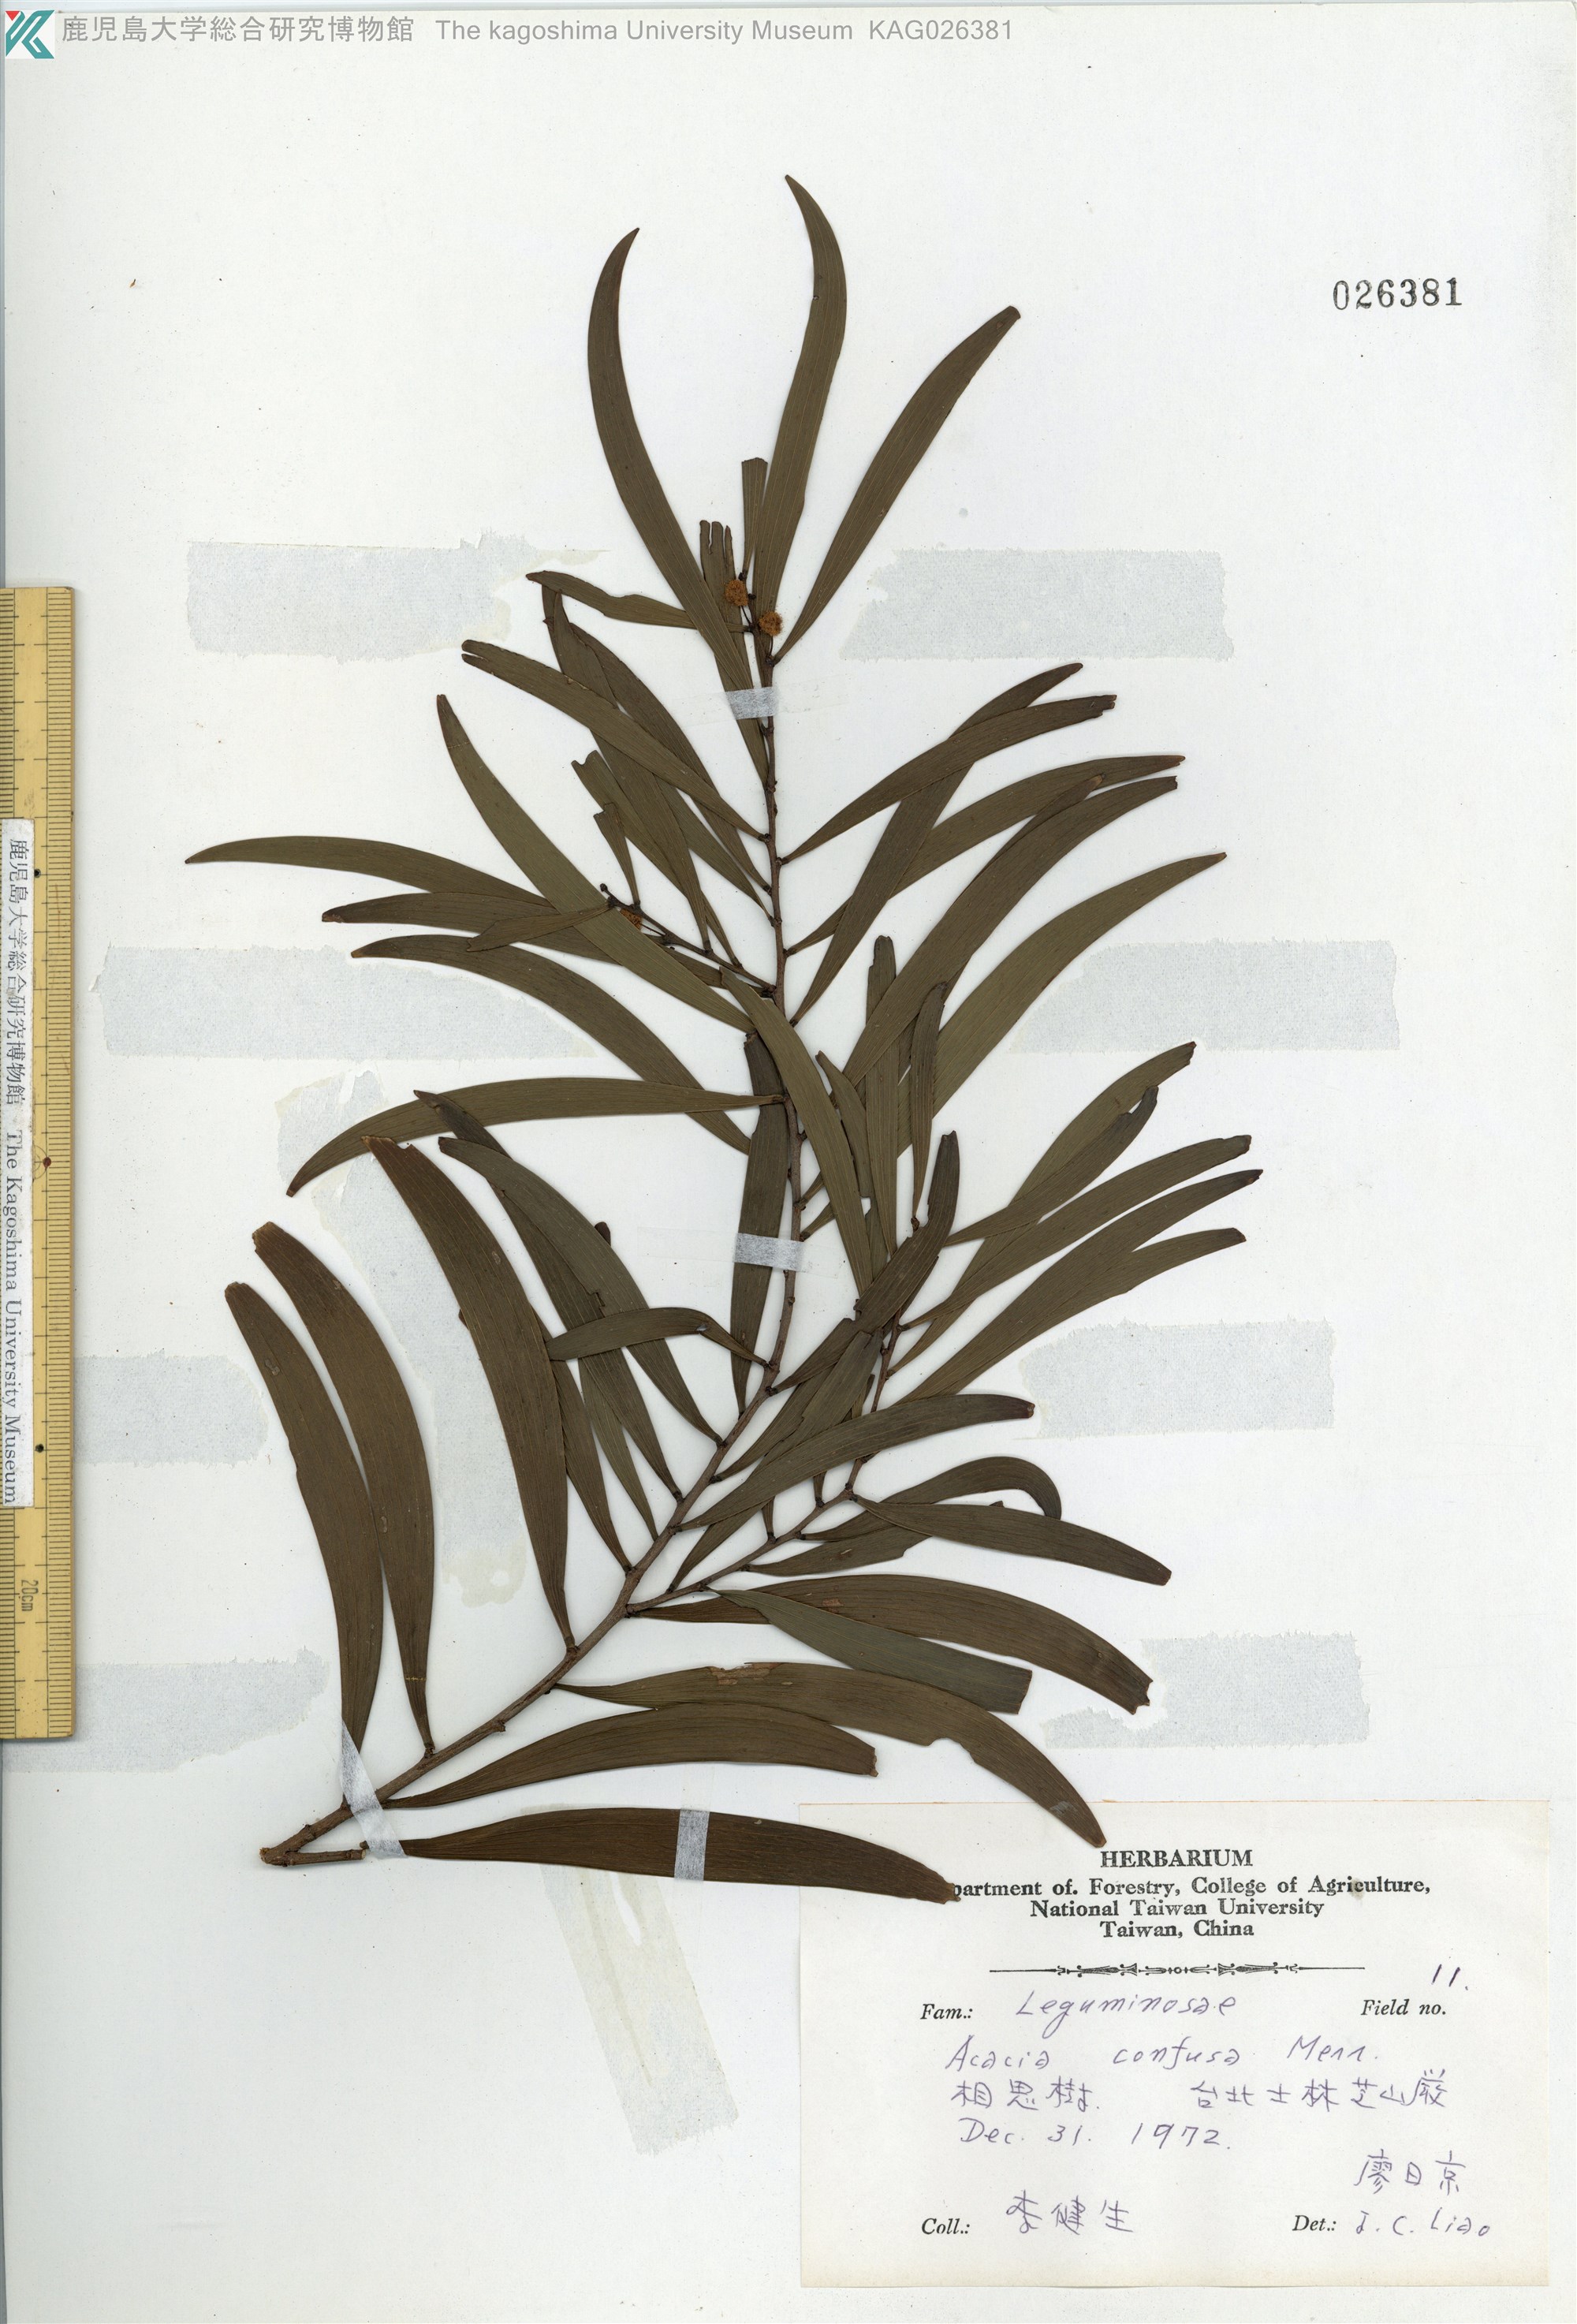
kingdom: Plantae
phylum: Tracheophyta
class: Magnoliopsida
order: Fabales
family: Fabaceae
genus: Acacia
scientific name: Acacia confusa
